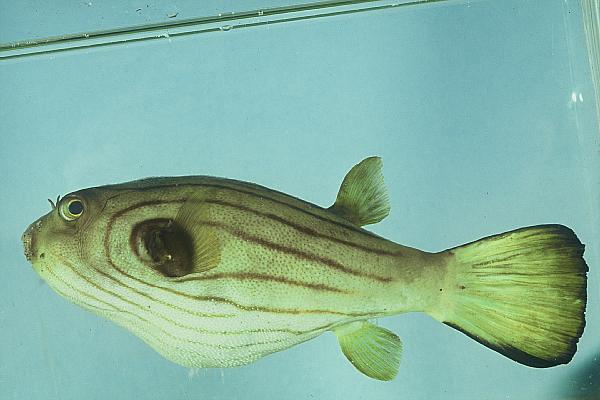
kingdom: Animalia
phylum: Chordata
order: Tetraodontiformes
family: Tetraodontidae
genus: Arothron
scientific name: Arothron manilensis
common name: Narrow-lined puffer
